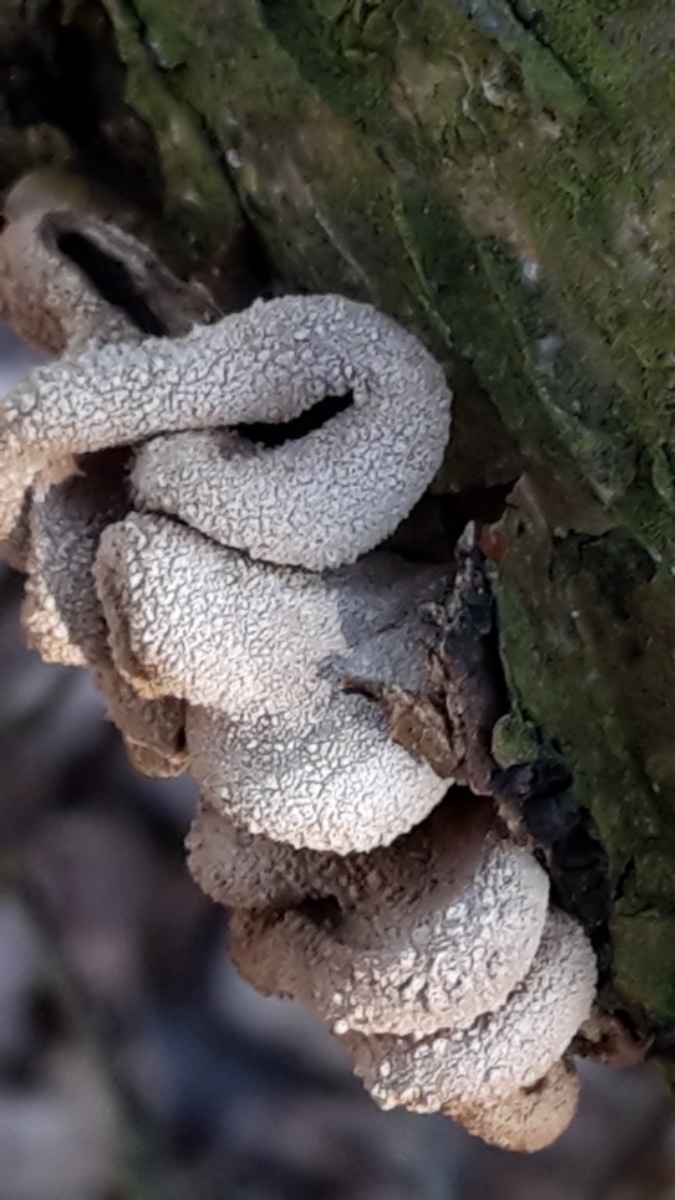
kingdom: Fungi
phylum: Ascomycota
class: Leotiomycetes
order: Helotiales
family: Cenangiaceae
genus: Encoelia
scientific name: Encoelia furfuracea
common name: hassel-læderskive
